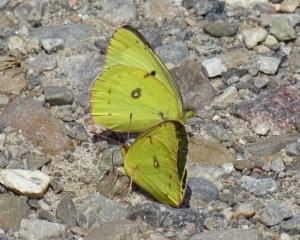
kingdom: Animalia
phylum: Arthropoda
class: Insecta
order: Lepidoptera
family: Pieridae
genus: Colias
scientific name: Colias philodice
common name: Clouded Sulphur
